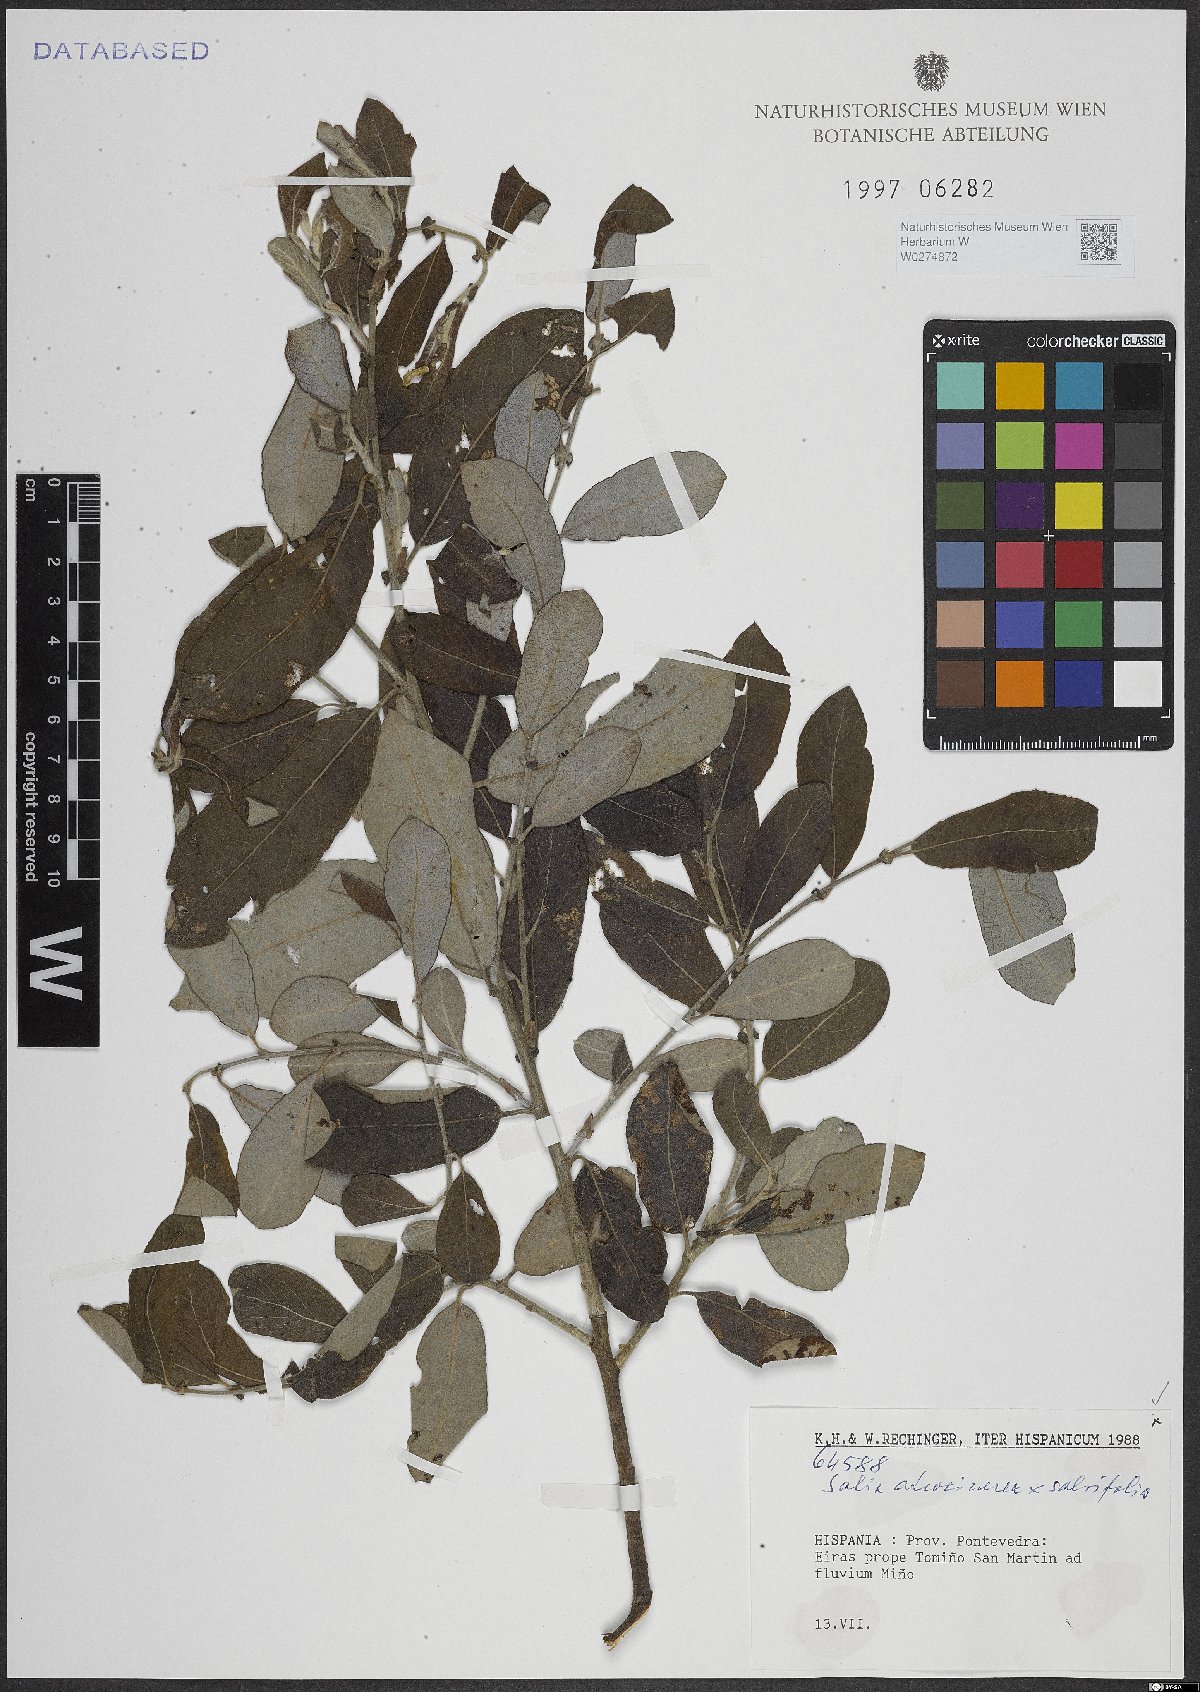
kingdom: Plantae
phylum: Tracheophyta
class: Magnoliopsida
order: Malpighiales
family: Salicaceae
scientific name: Salicaceae
